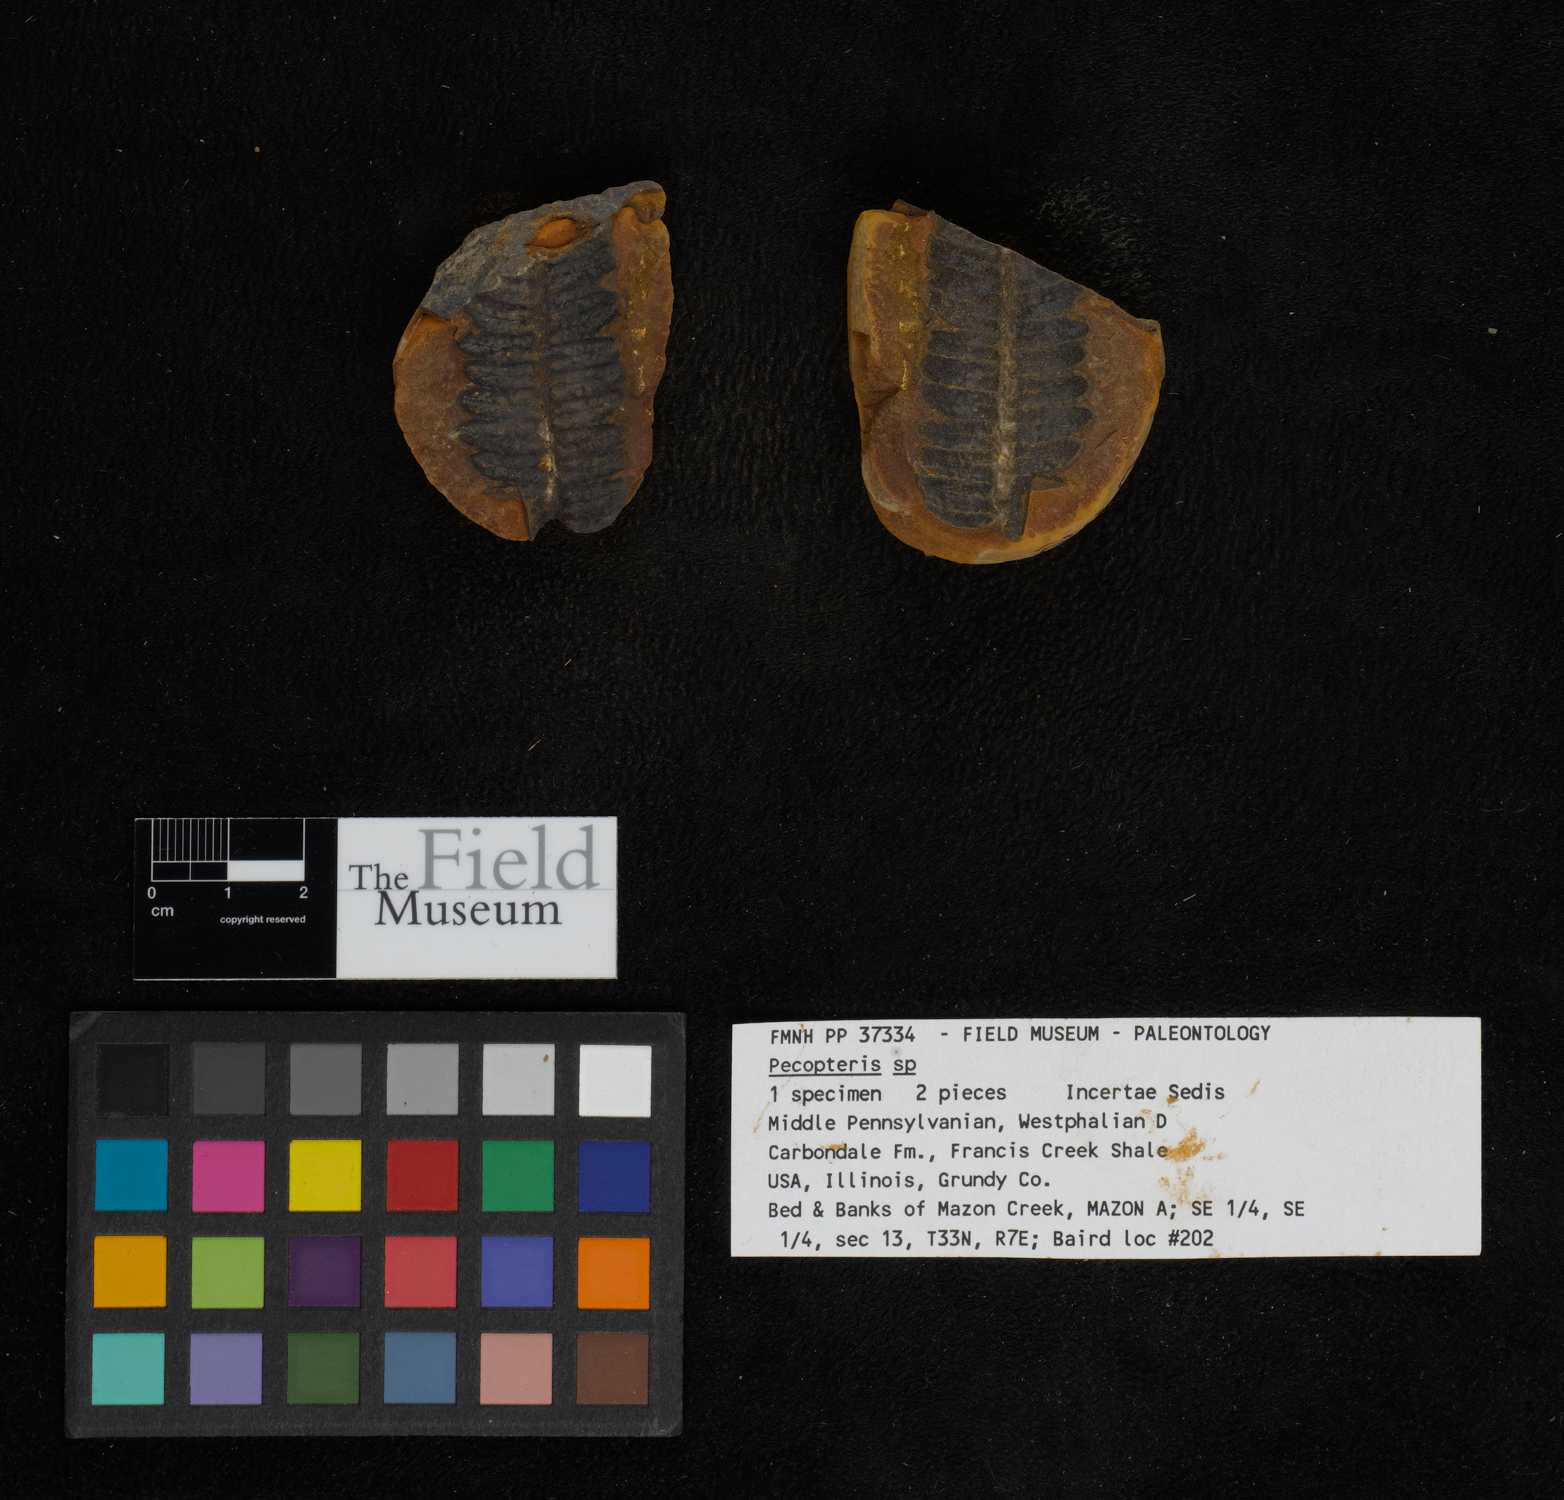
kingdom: Plantae
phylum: Tracheophyta
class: Polypodiopsida
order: Marattiales
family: Asterothecaceae
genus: Pecopteris
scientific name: Pecopteris
